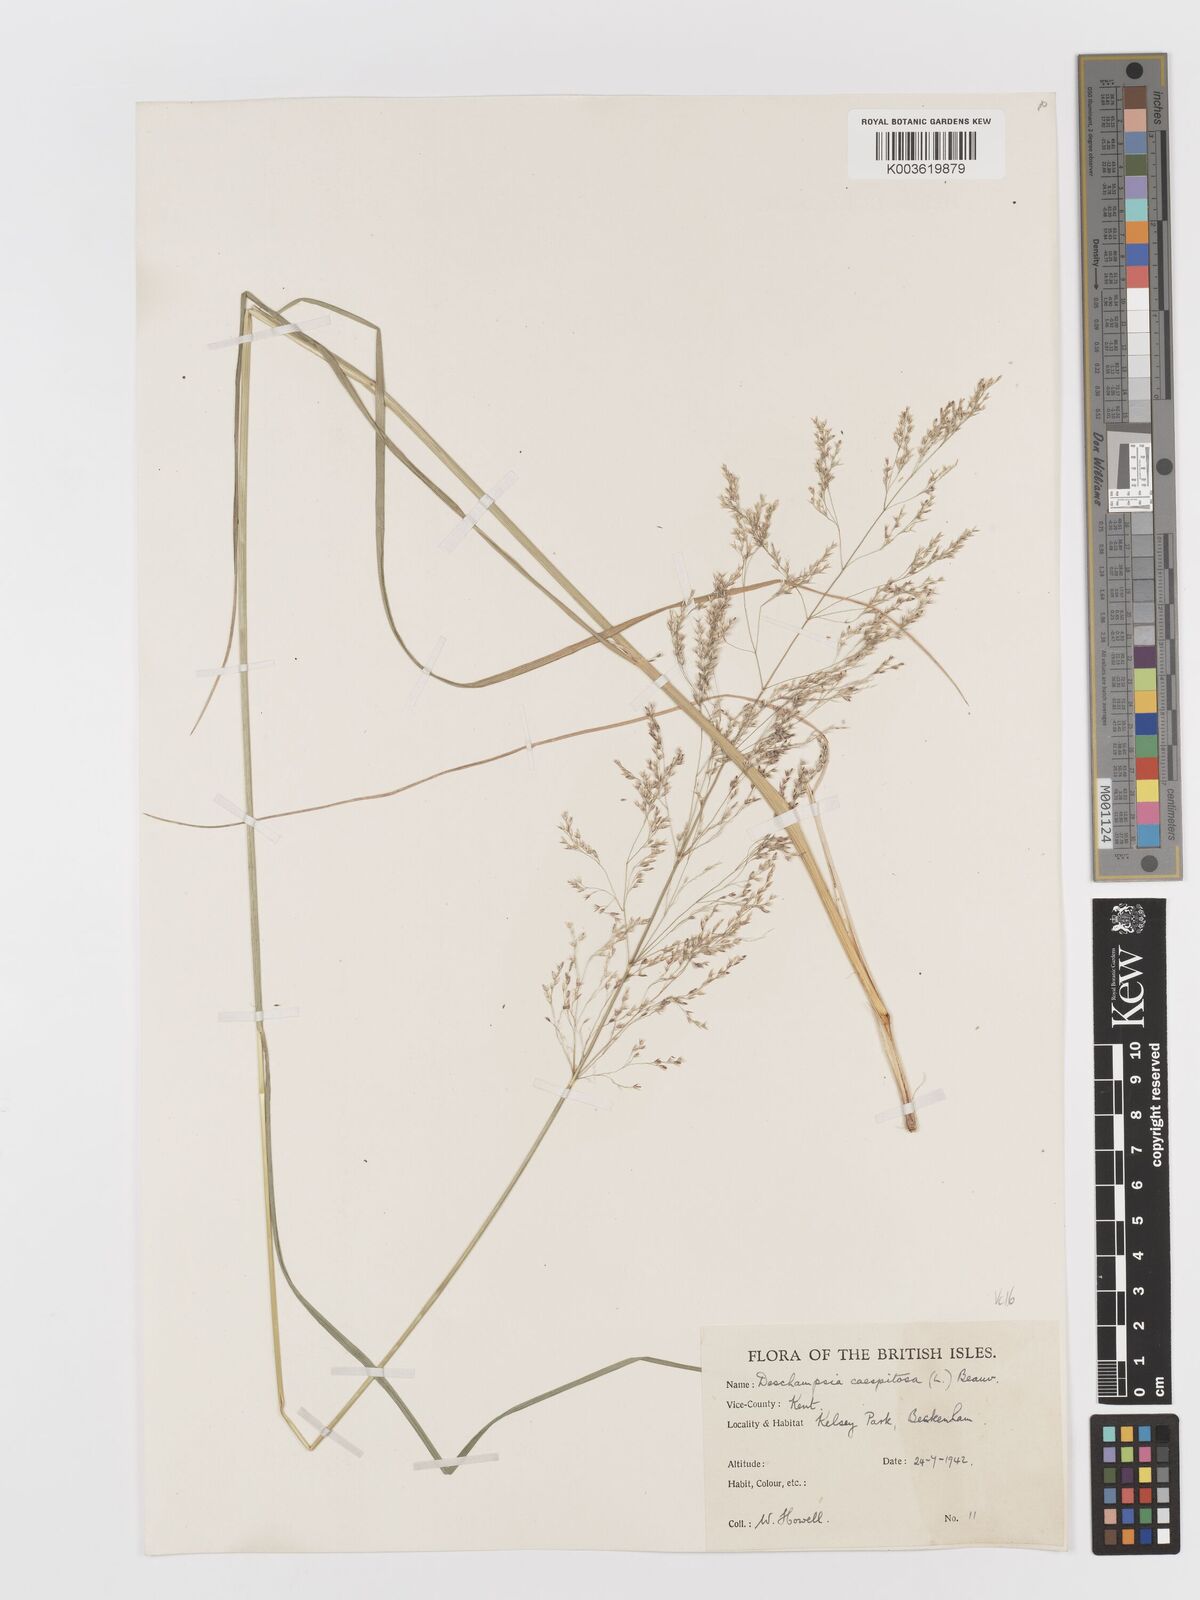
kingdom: Plantae
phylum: Tracheophyta
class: Liliopsida
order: Poales
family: Poaceae
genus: Deschampsia
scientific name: Deschampsia cespitosa
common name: Tufted hair-grass
